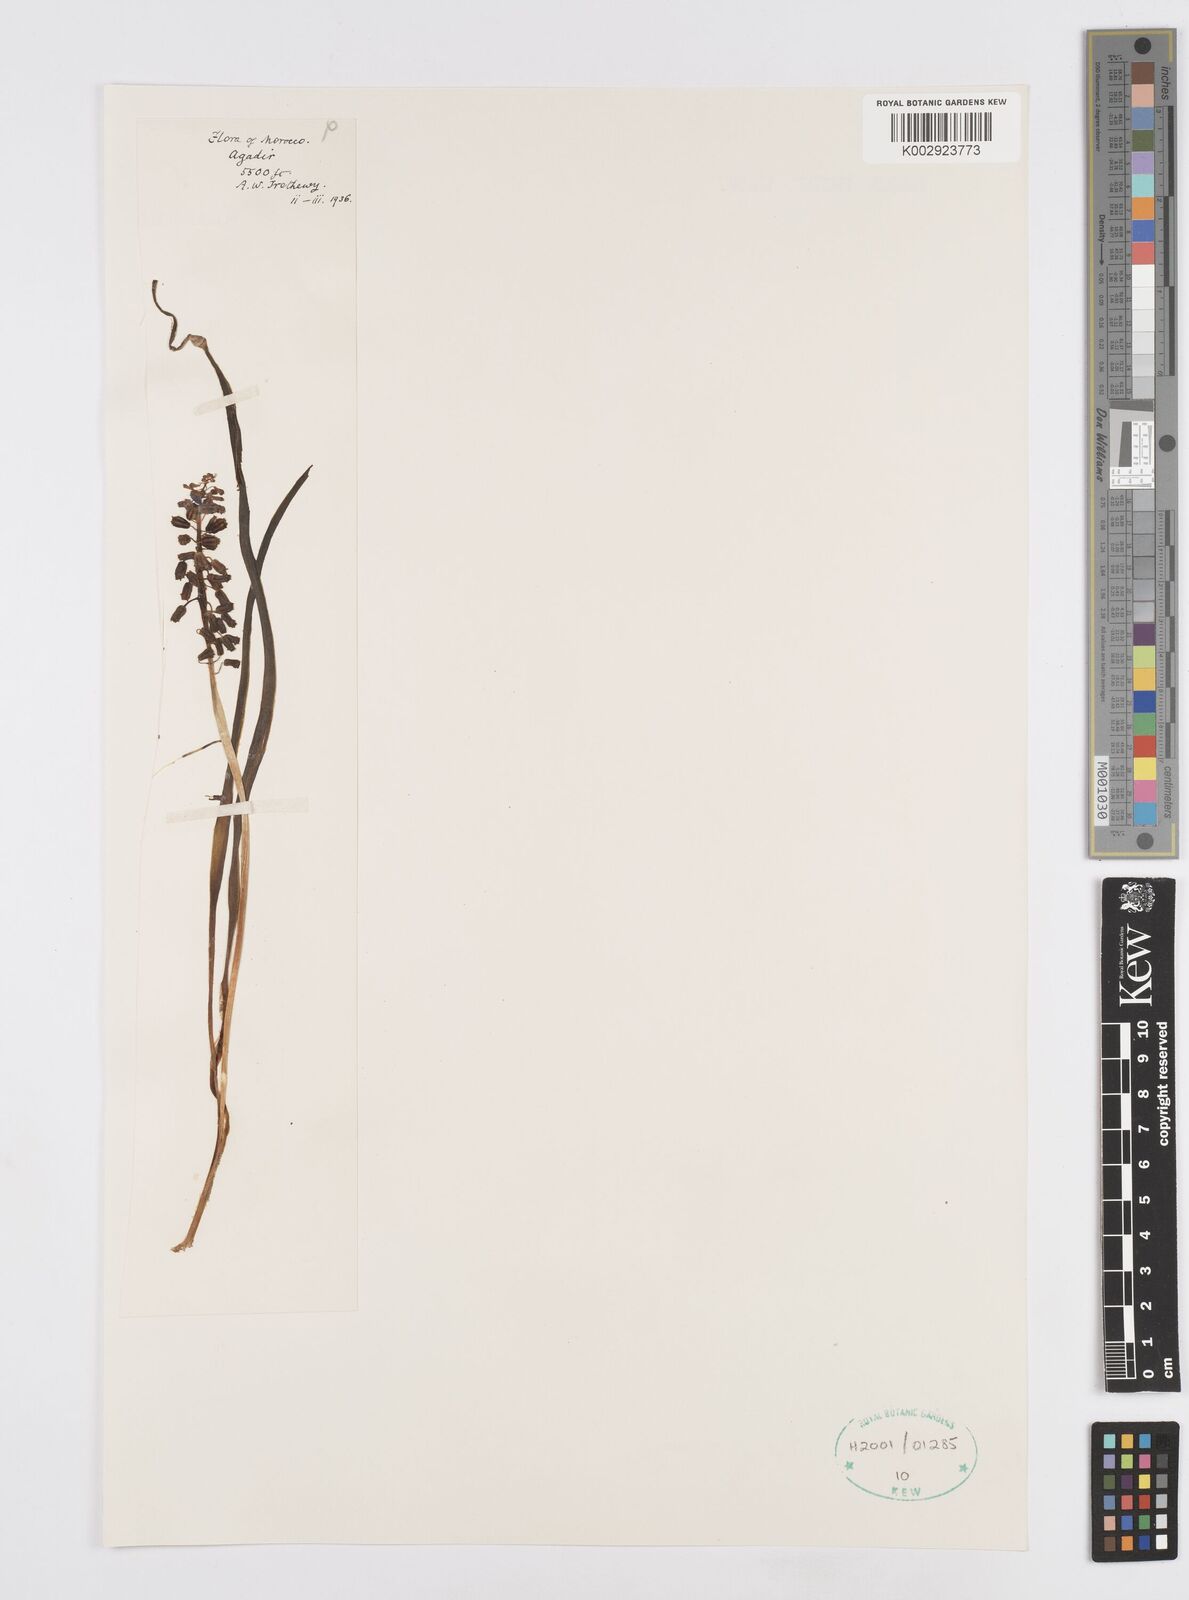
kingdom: Plantae
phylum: Tracheophyta
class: Liliopsida
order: Asparagales
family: Asparagaceae
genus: Muscari
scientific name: Muscari
